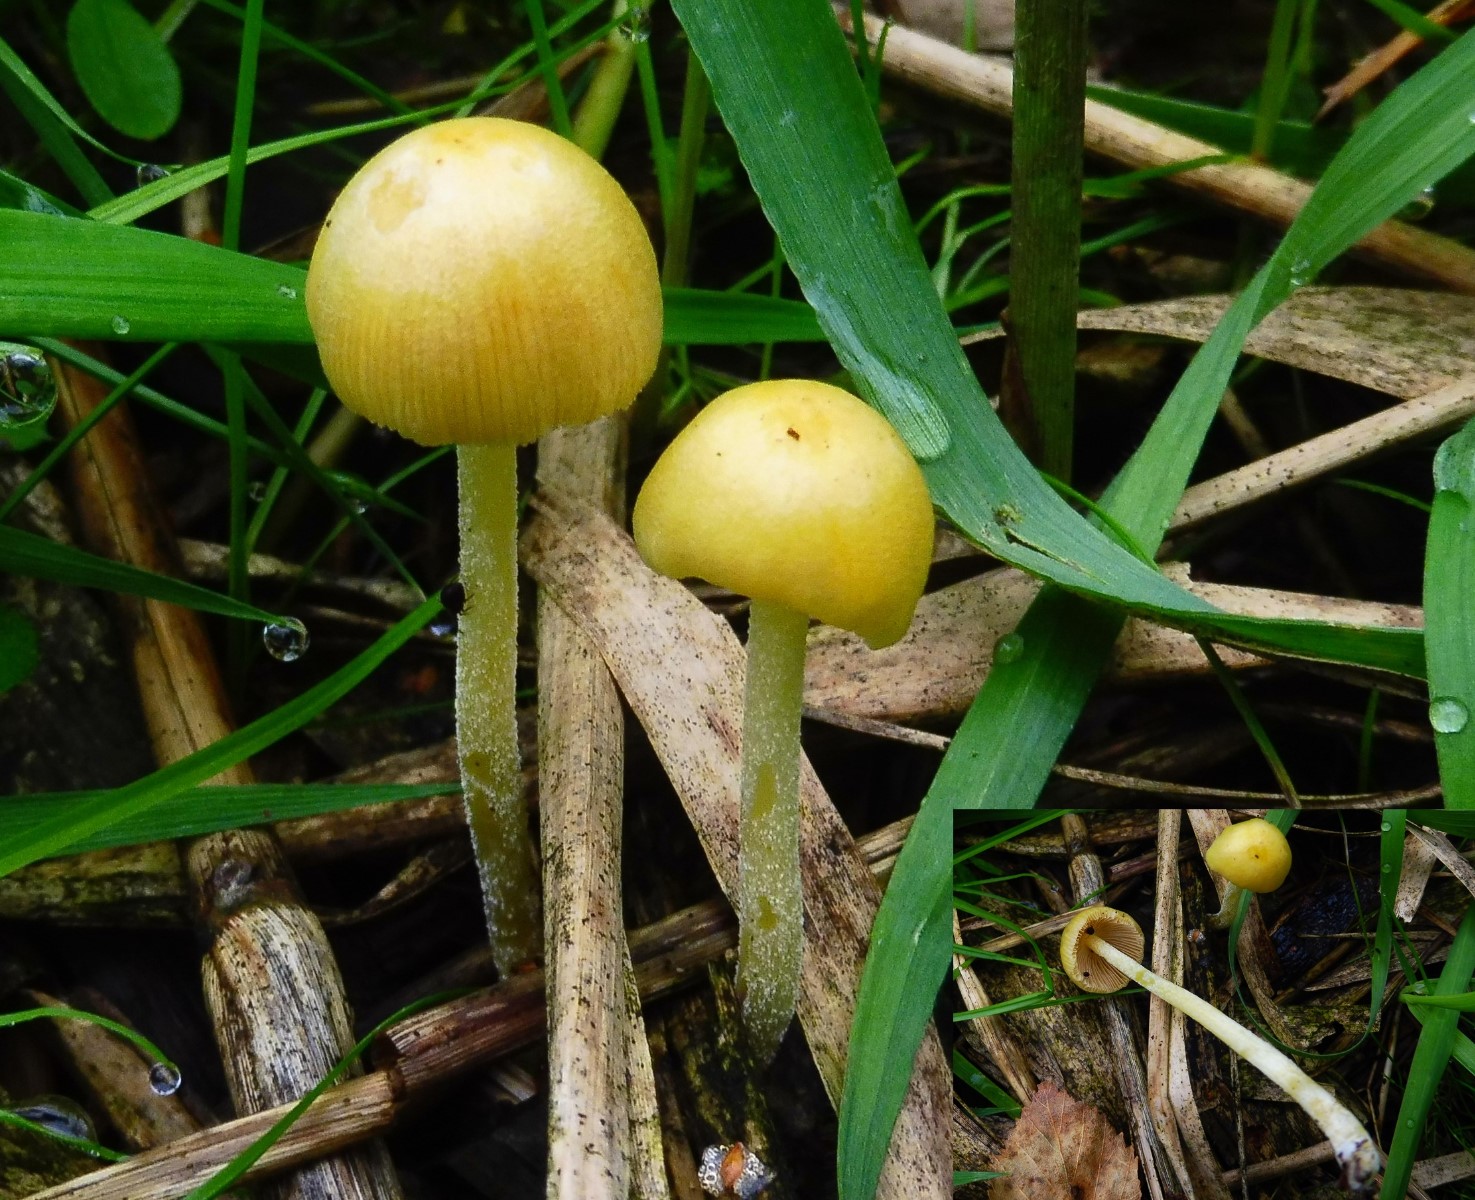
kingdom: Fungi
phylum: Basidiomycota
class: Agaricomycetes
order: Agaricales
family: Bolbitiaceae
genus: Bolbitius
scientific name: Bolbitius titubans
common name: almindelig gulhat
